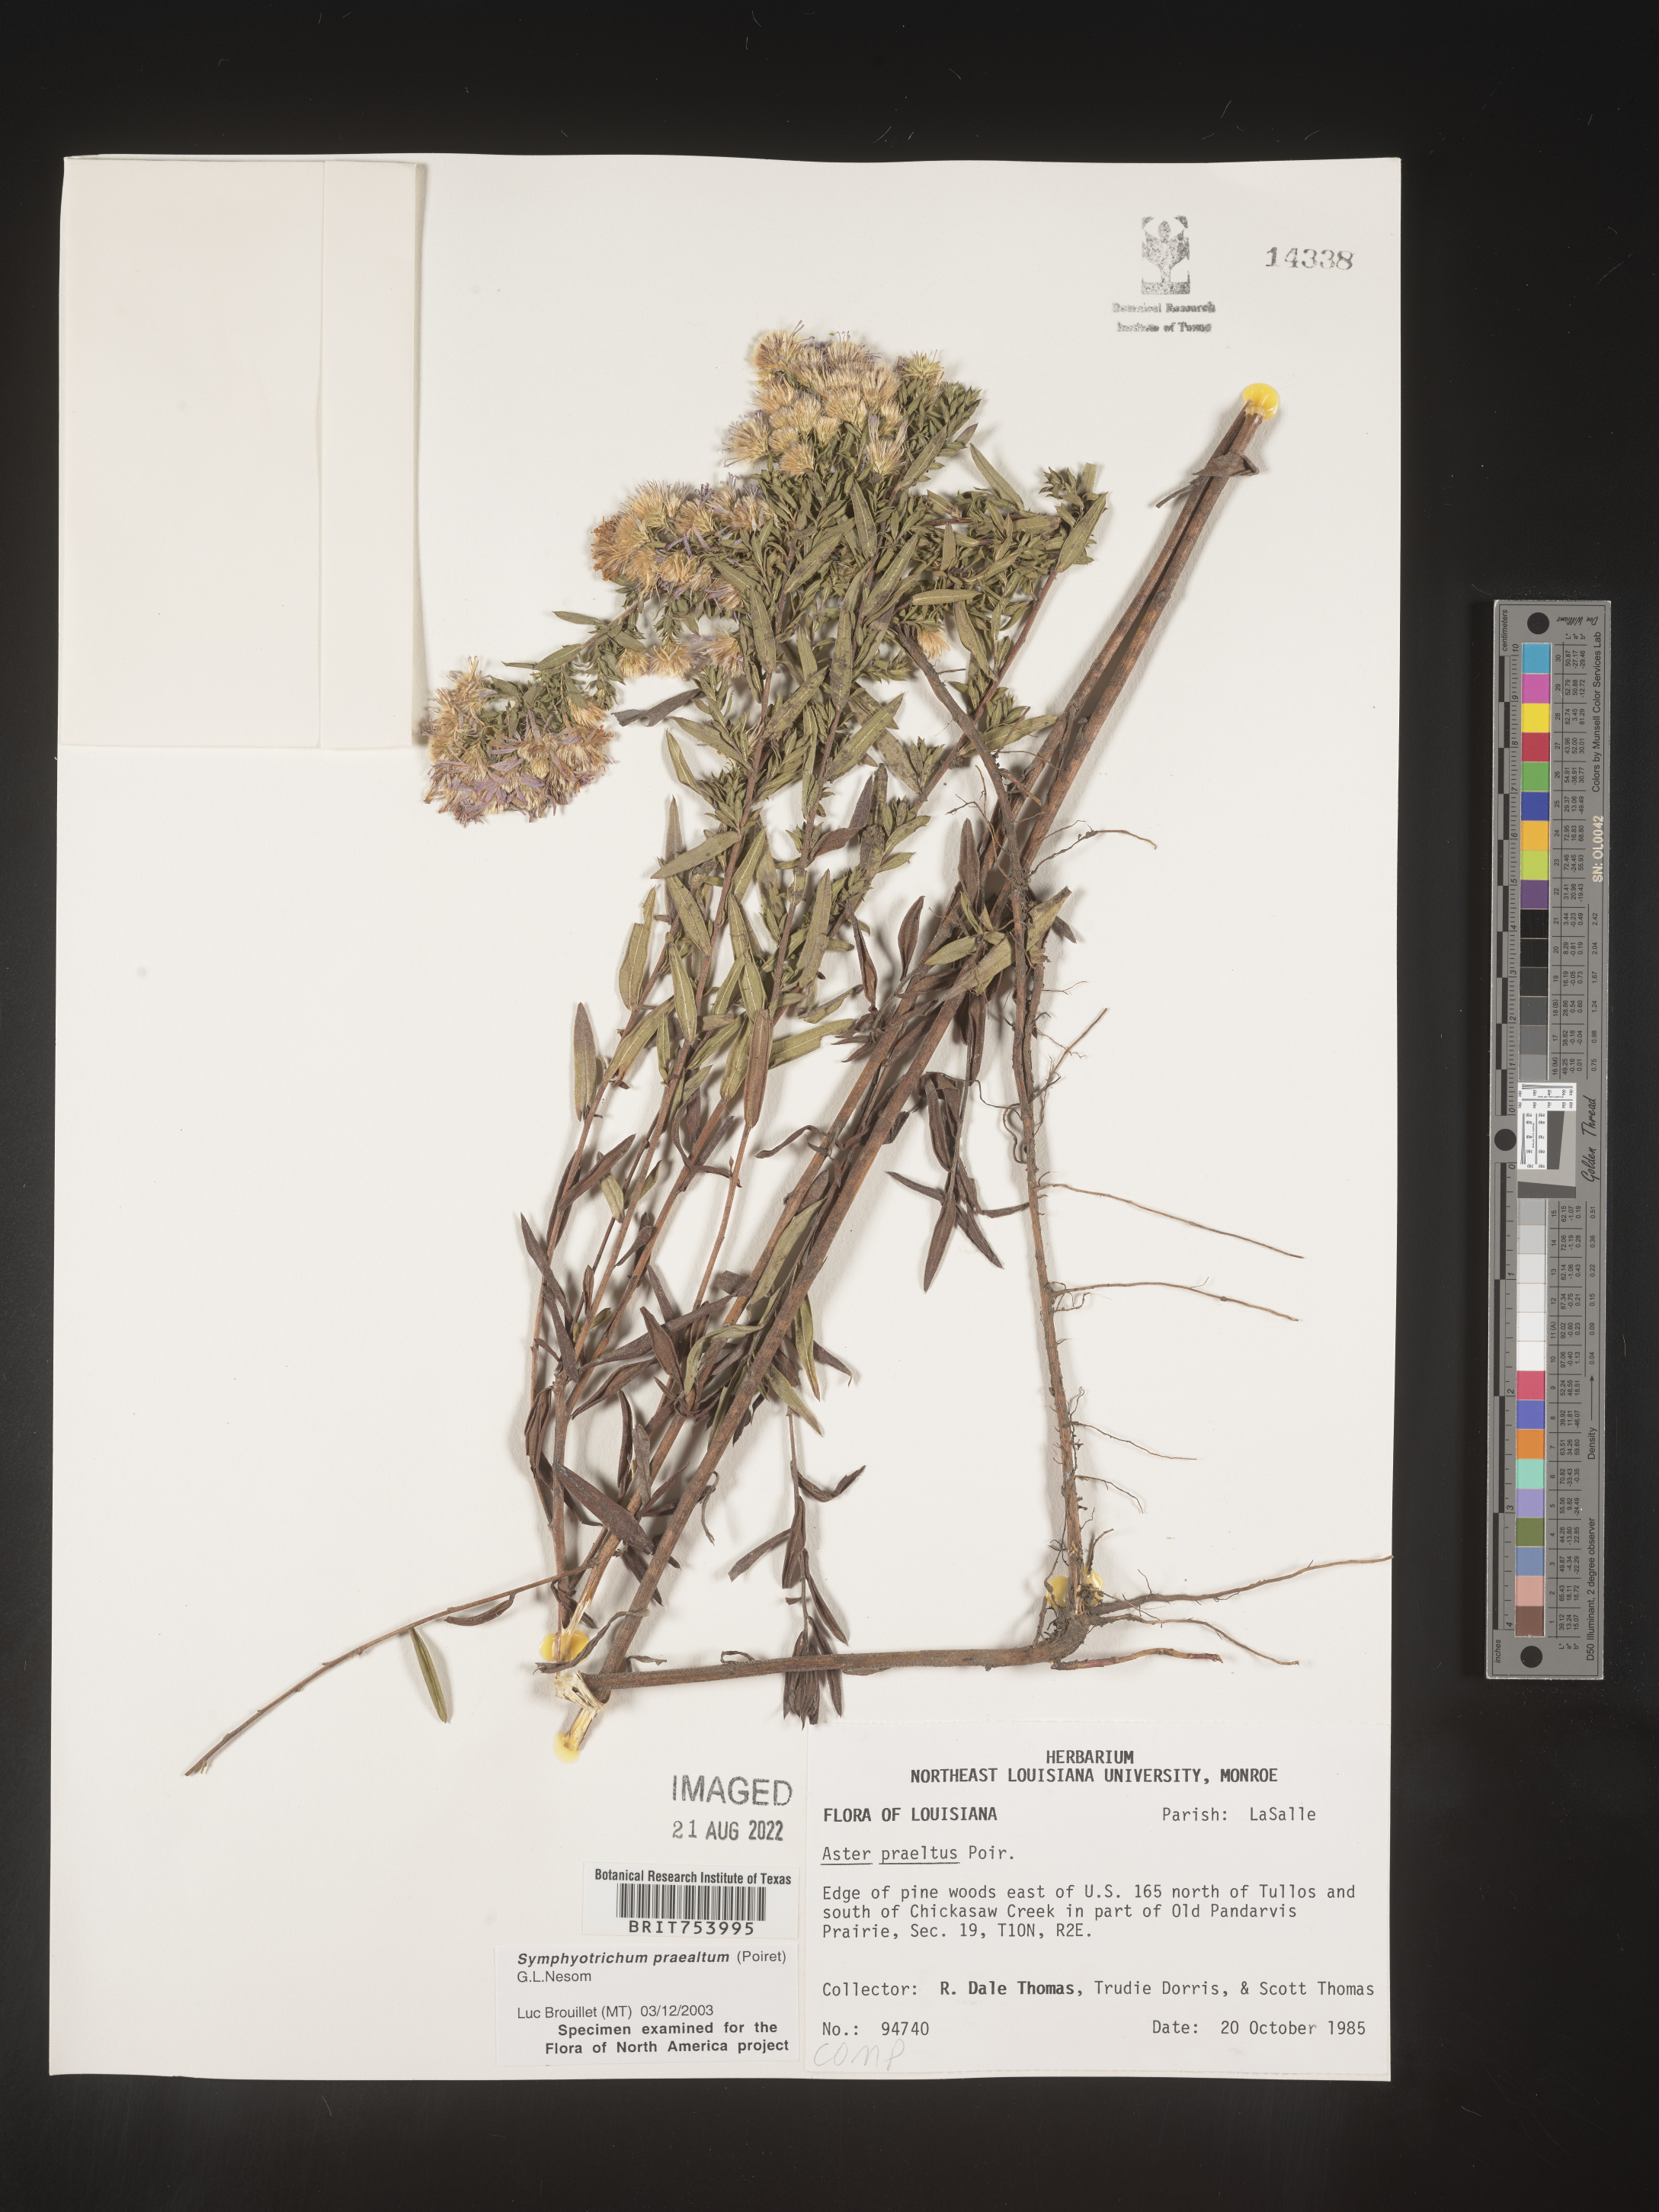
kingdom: Plantae
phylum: Tracheophyta
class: Magnoliopsida
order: Asterales
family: Asteraceae
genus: Symphyotrichum
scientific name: Symphyotrichum praealtum
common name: Willow aster
